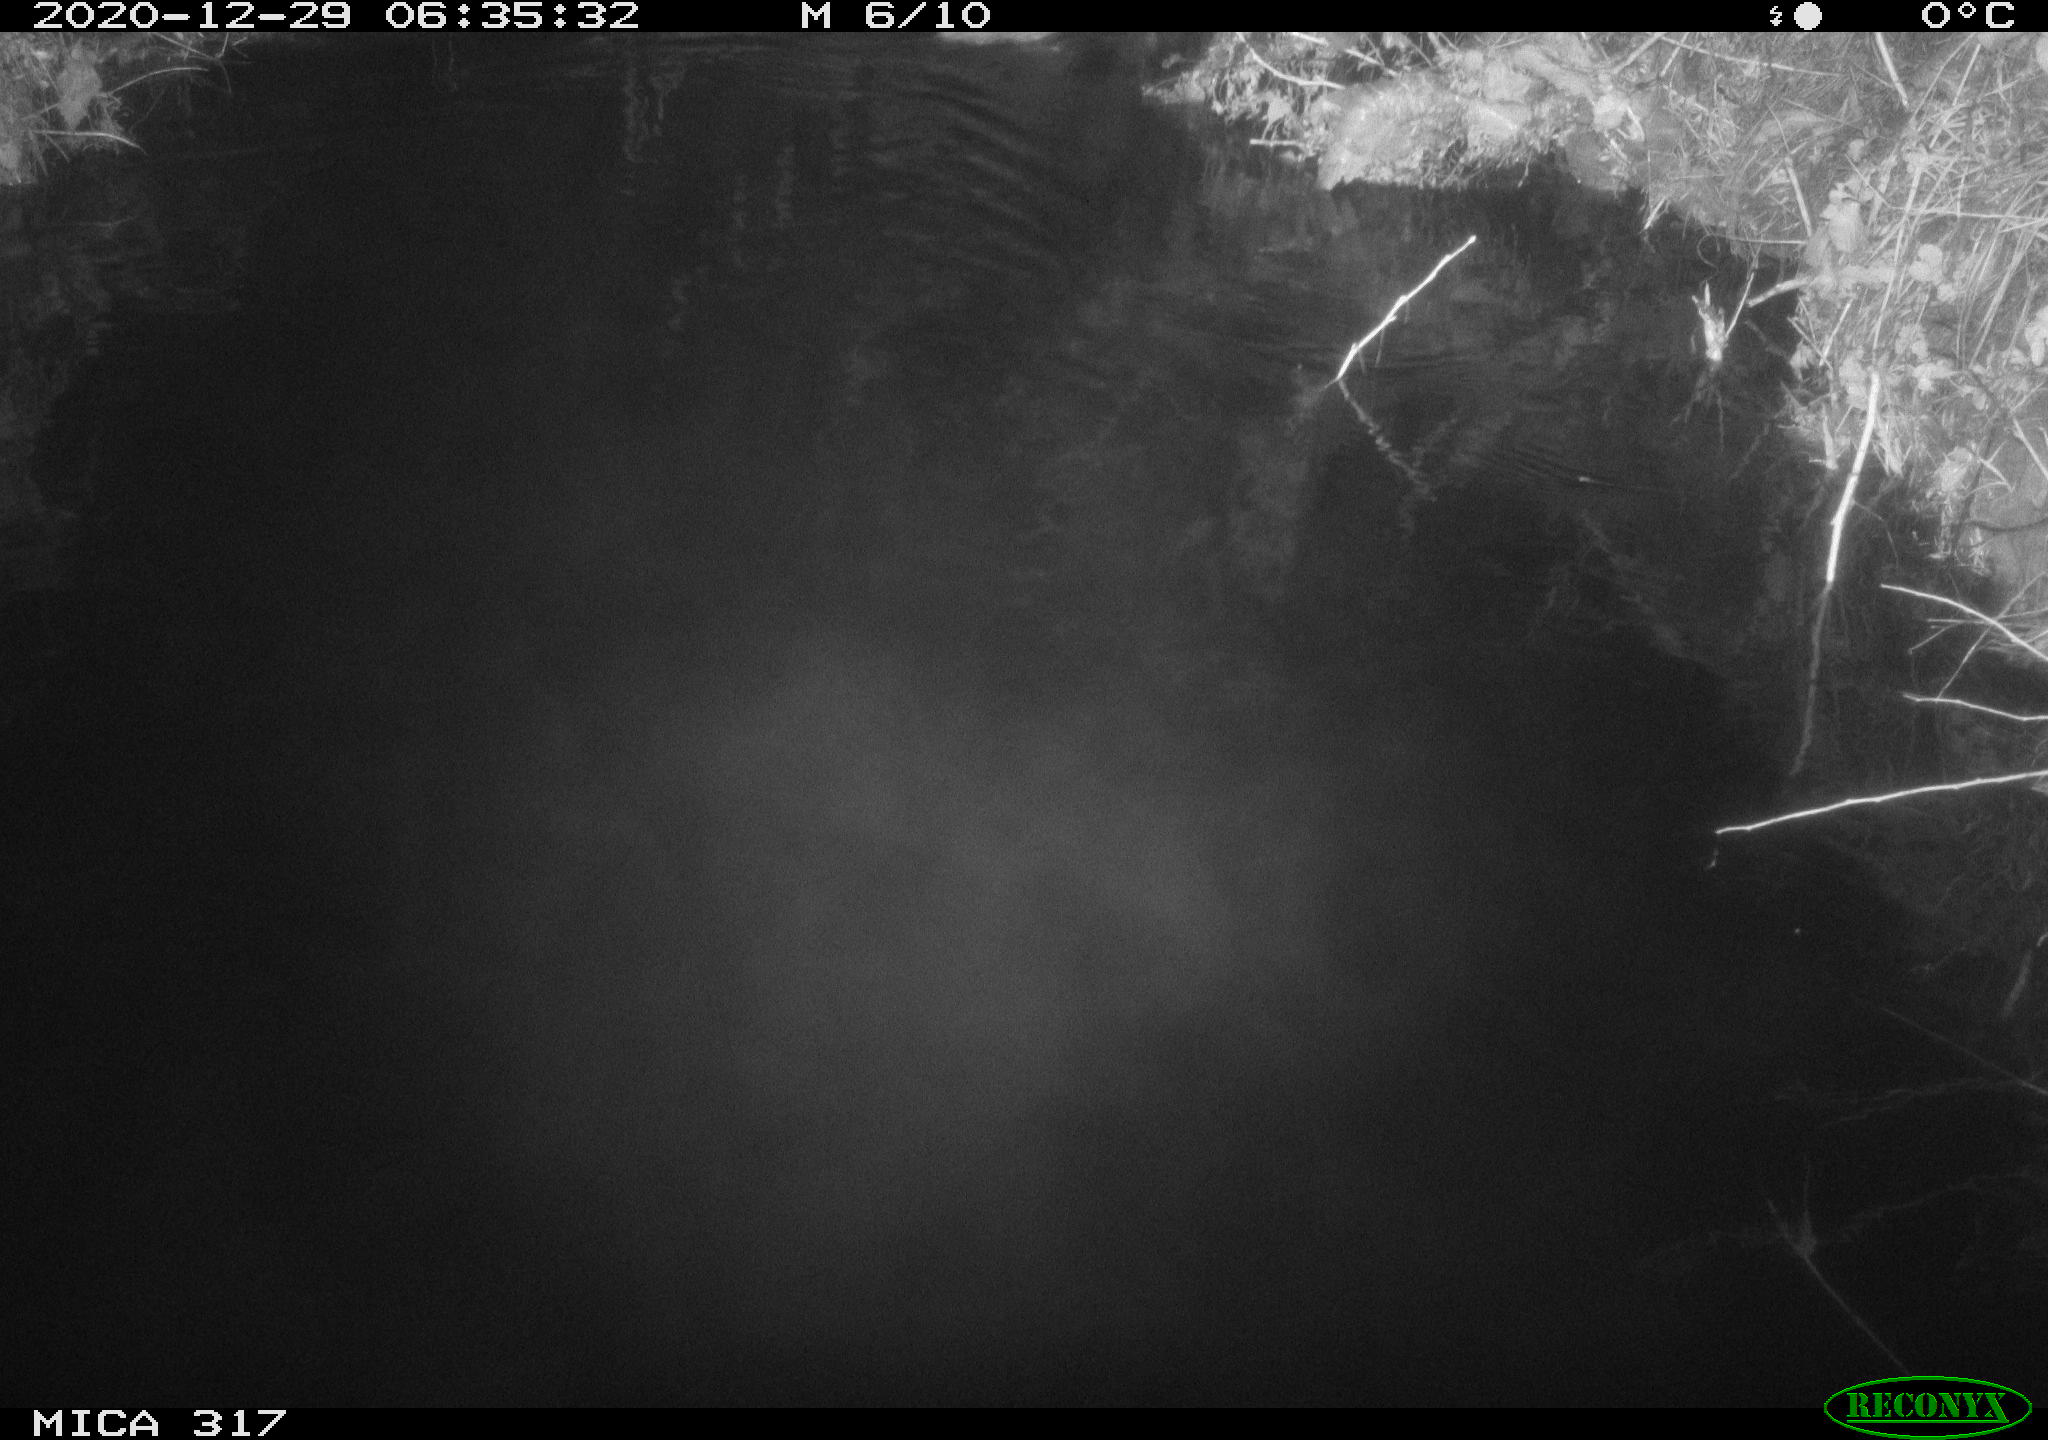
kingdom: Animalia
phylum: Chordata
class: Mammalia
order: Rodentia
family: Muridae
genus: Rattus
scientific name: Rattus norvegicus
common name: Brown rat
